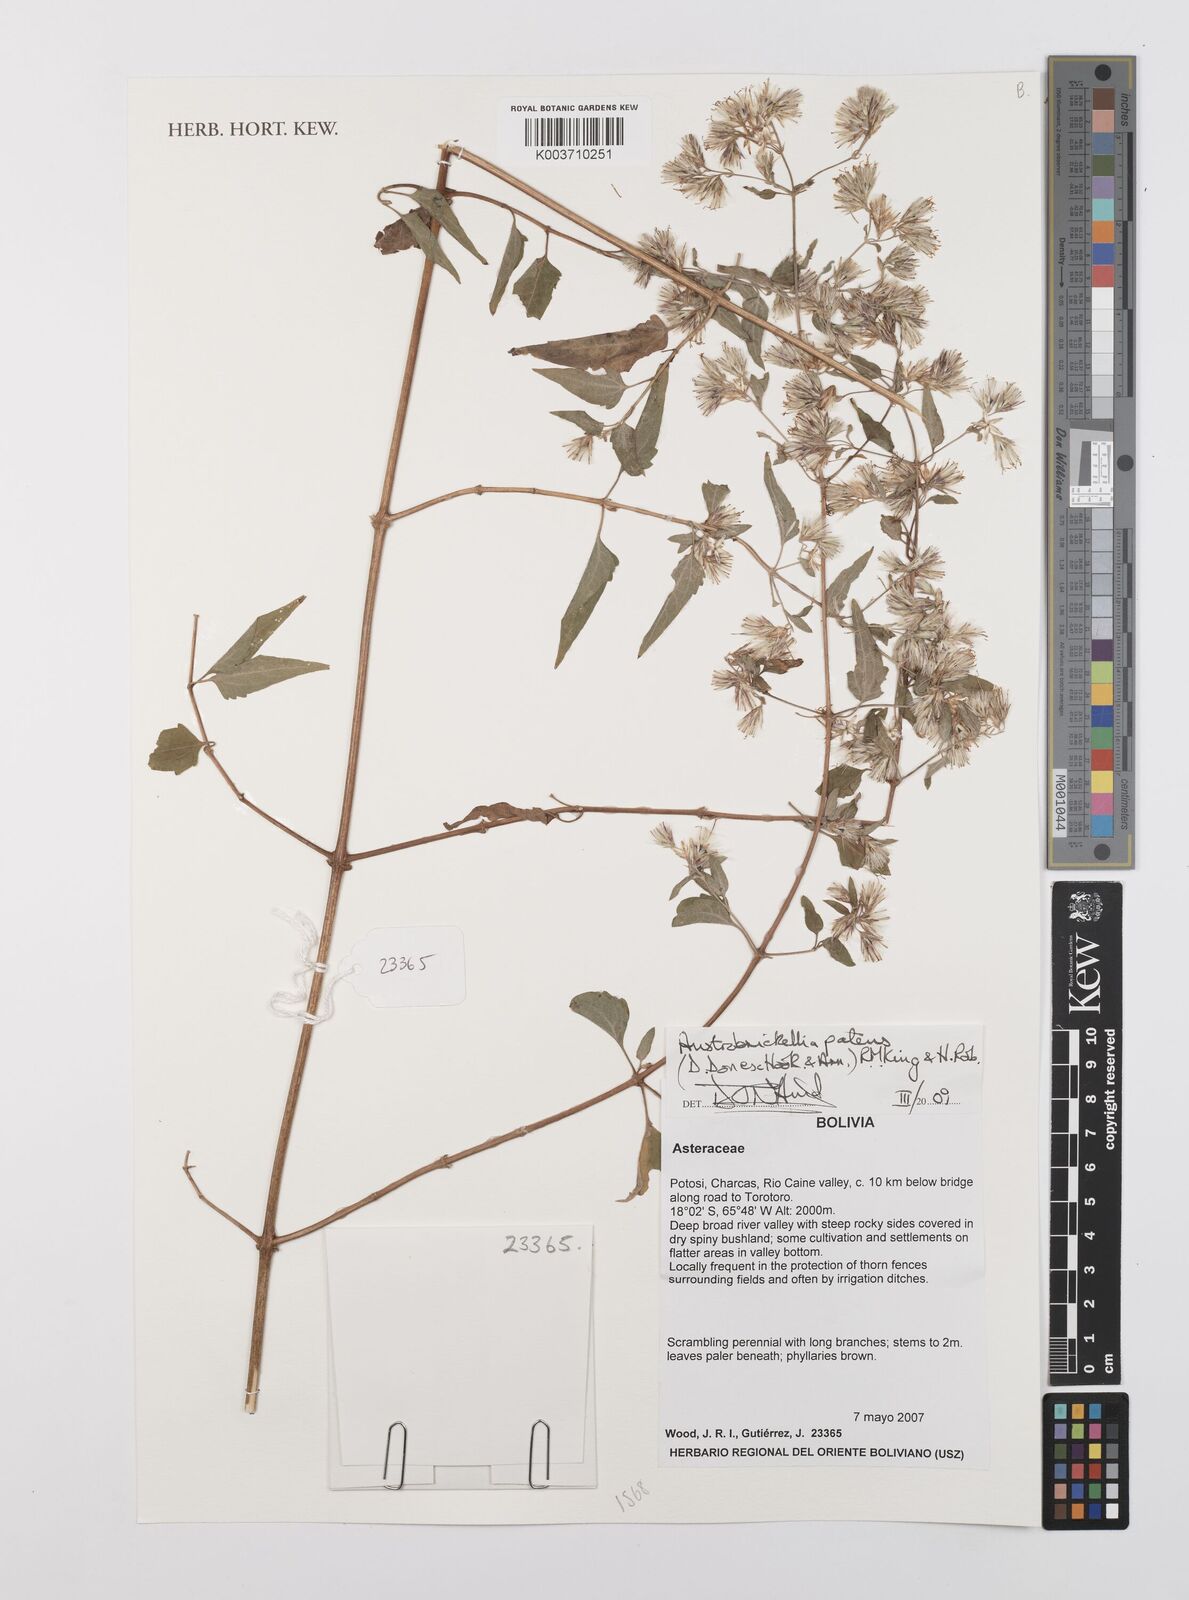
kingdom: Plantae
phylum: Tracheophyta
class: Magnoliopsida
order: Asterales
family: Asteraceae
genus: Austrobrickellia
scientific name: Austrobrickellia patens
